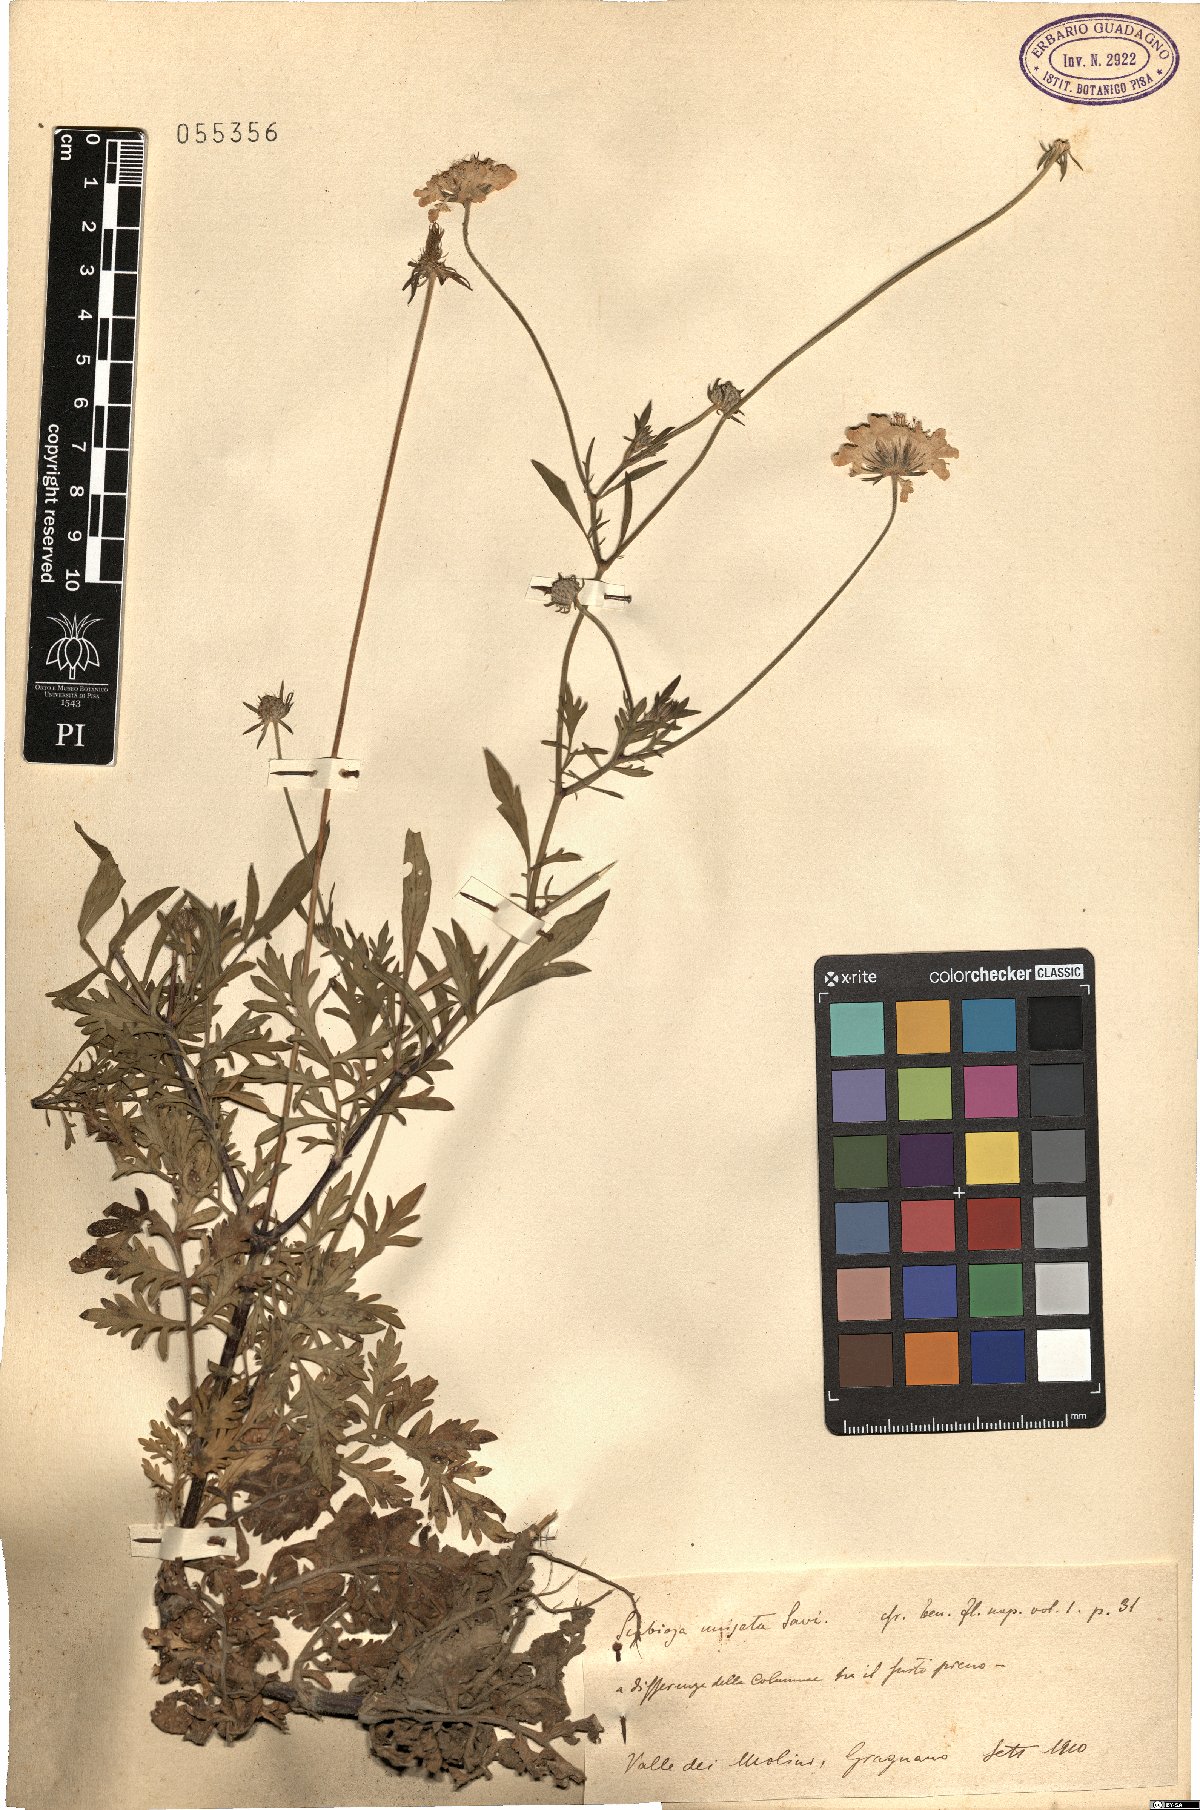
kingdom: Plantae
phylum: Tracheophyta
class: Magnoliopsida
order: Dipsacales
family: Caprifoliaceae
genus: Scabiosa
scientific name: Scabiosa columbaria
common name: Small scabious
